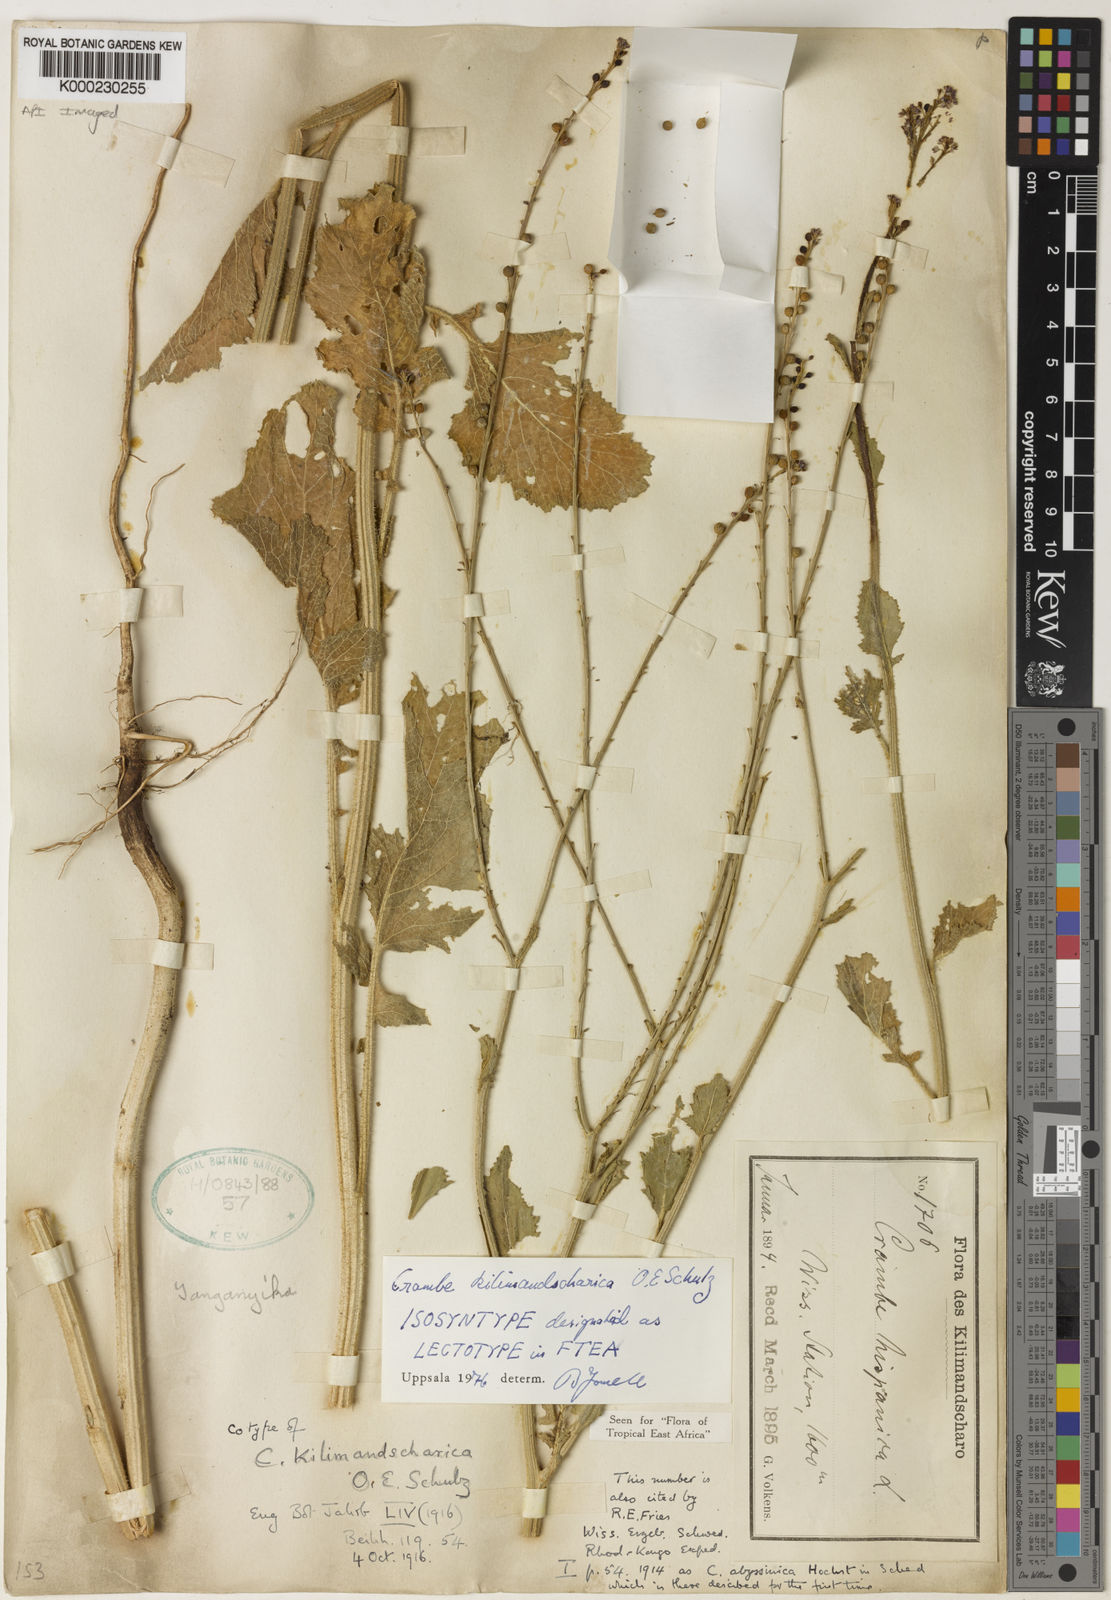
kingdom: Plantae
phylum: Tracheophyta
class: Magnoliopsida
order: Brassicales
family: Brassicaceae
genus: Crambe
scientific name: Crambe
